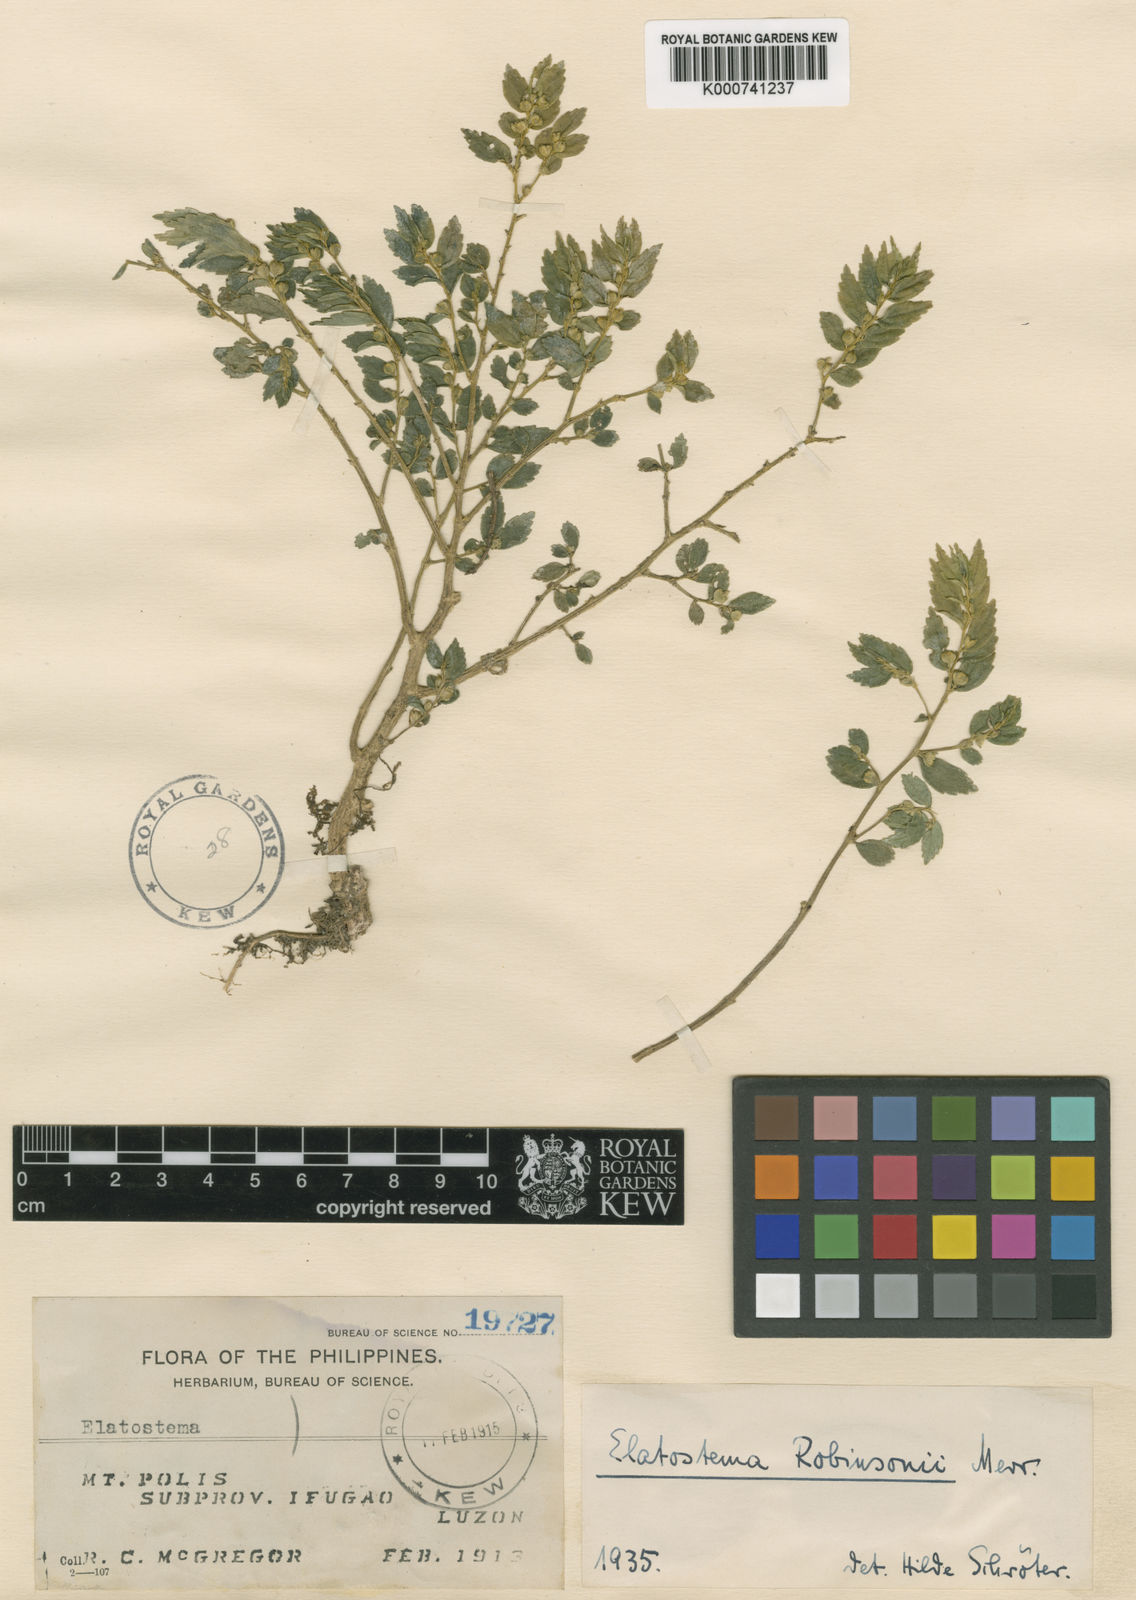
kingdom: Plantae
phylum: Tracheophyta
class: Magnoliopsida
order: Rosales
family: Urticaceae
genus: Elatostema
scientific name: Elatostema robinsonii
